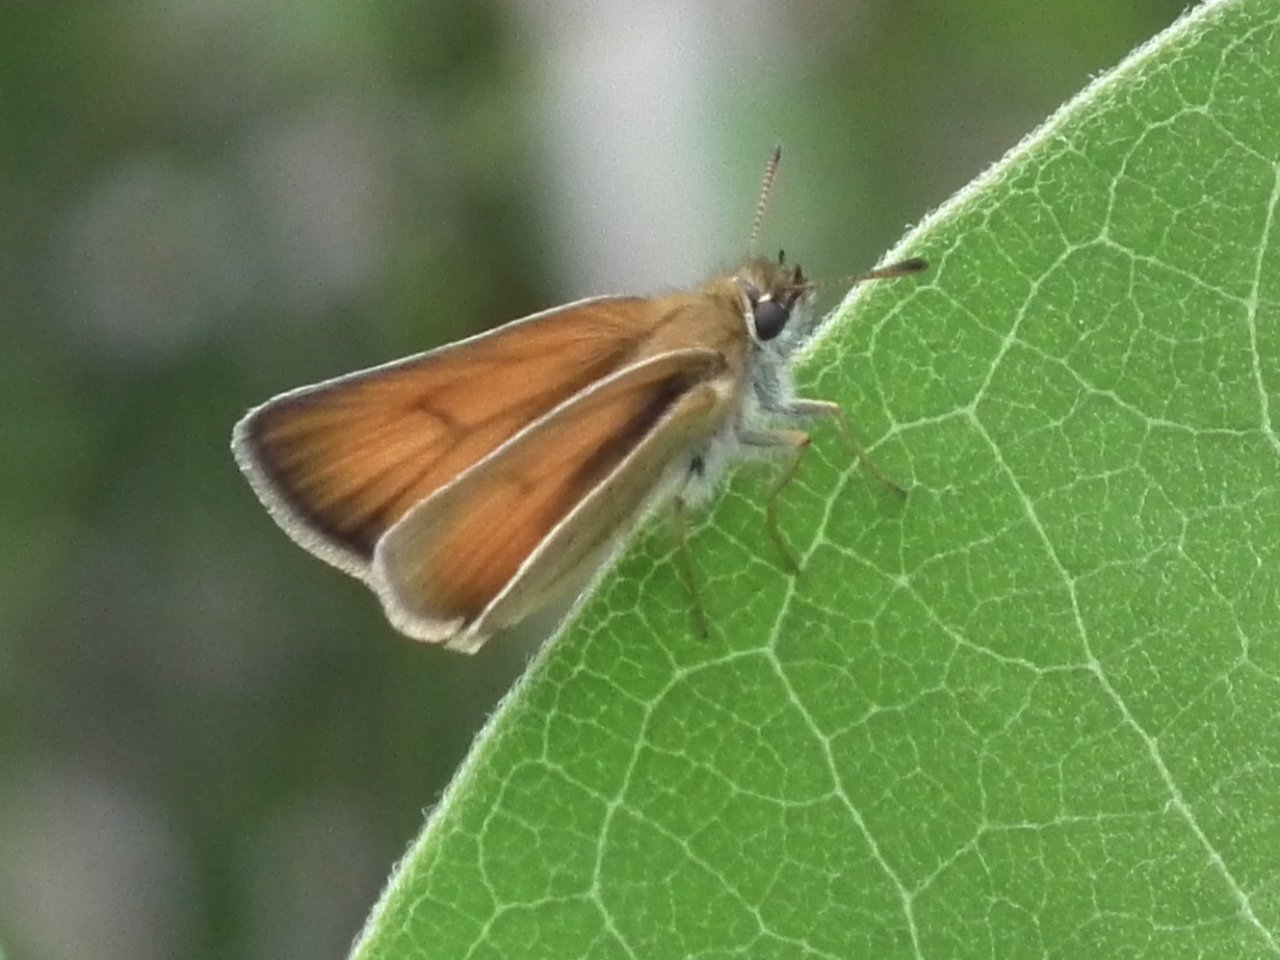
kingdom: Animalia
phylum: Arthropoda
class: Insecta
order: Lepidoptera
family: Hesperiidae
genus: Thymelicus
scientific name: Thymelicus lineola
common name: European Skipper
